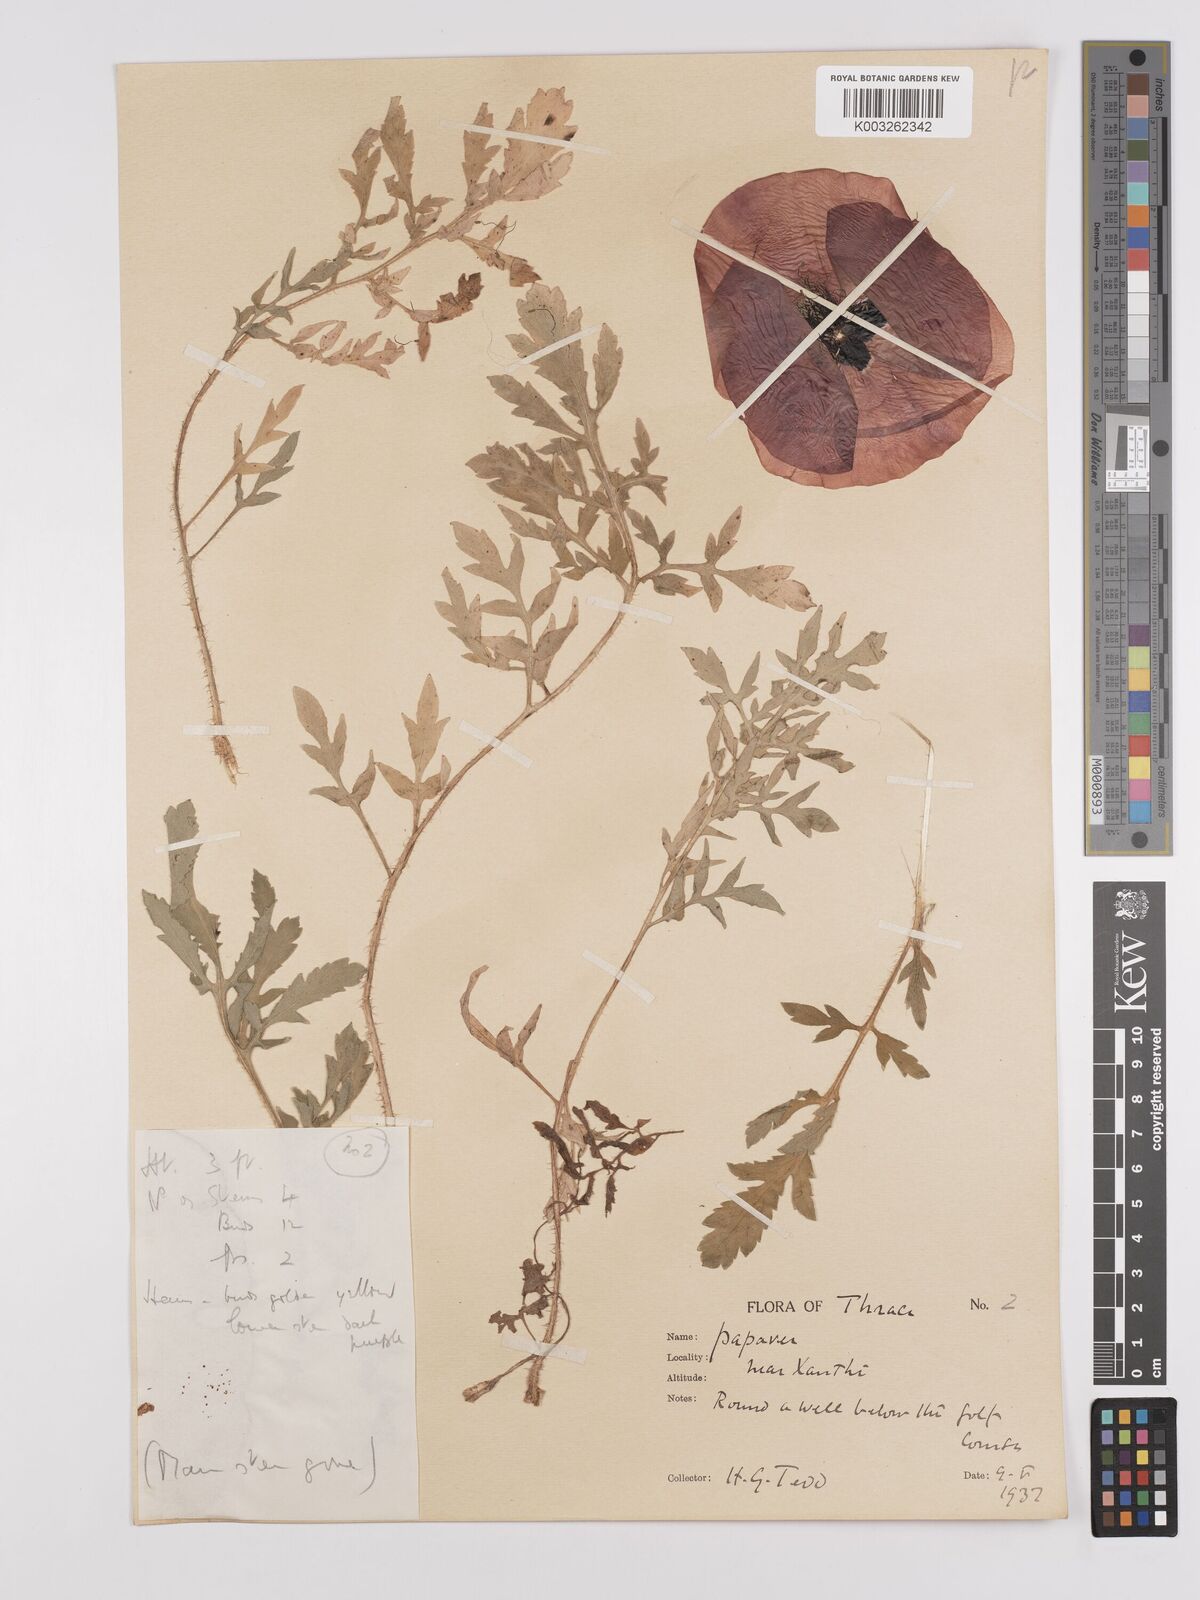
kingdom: Plantae
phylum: Tracheophyta
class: Magnoliopsida
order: Ranunculales
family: Papaveraceae
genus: Papaver
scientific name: Papaver rhoeas
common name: Corn poppy
